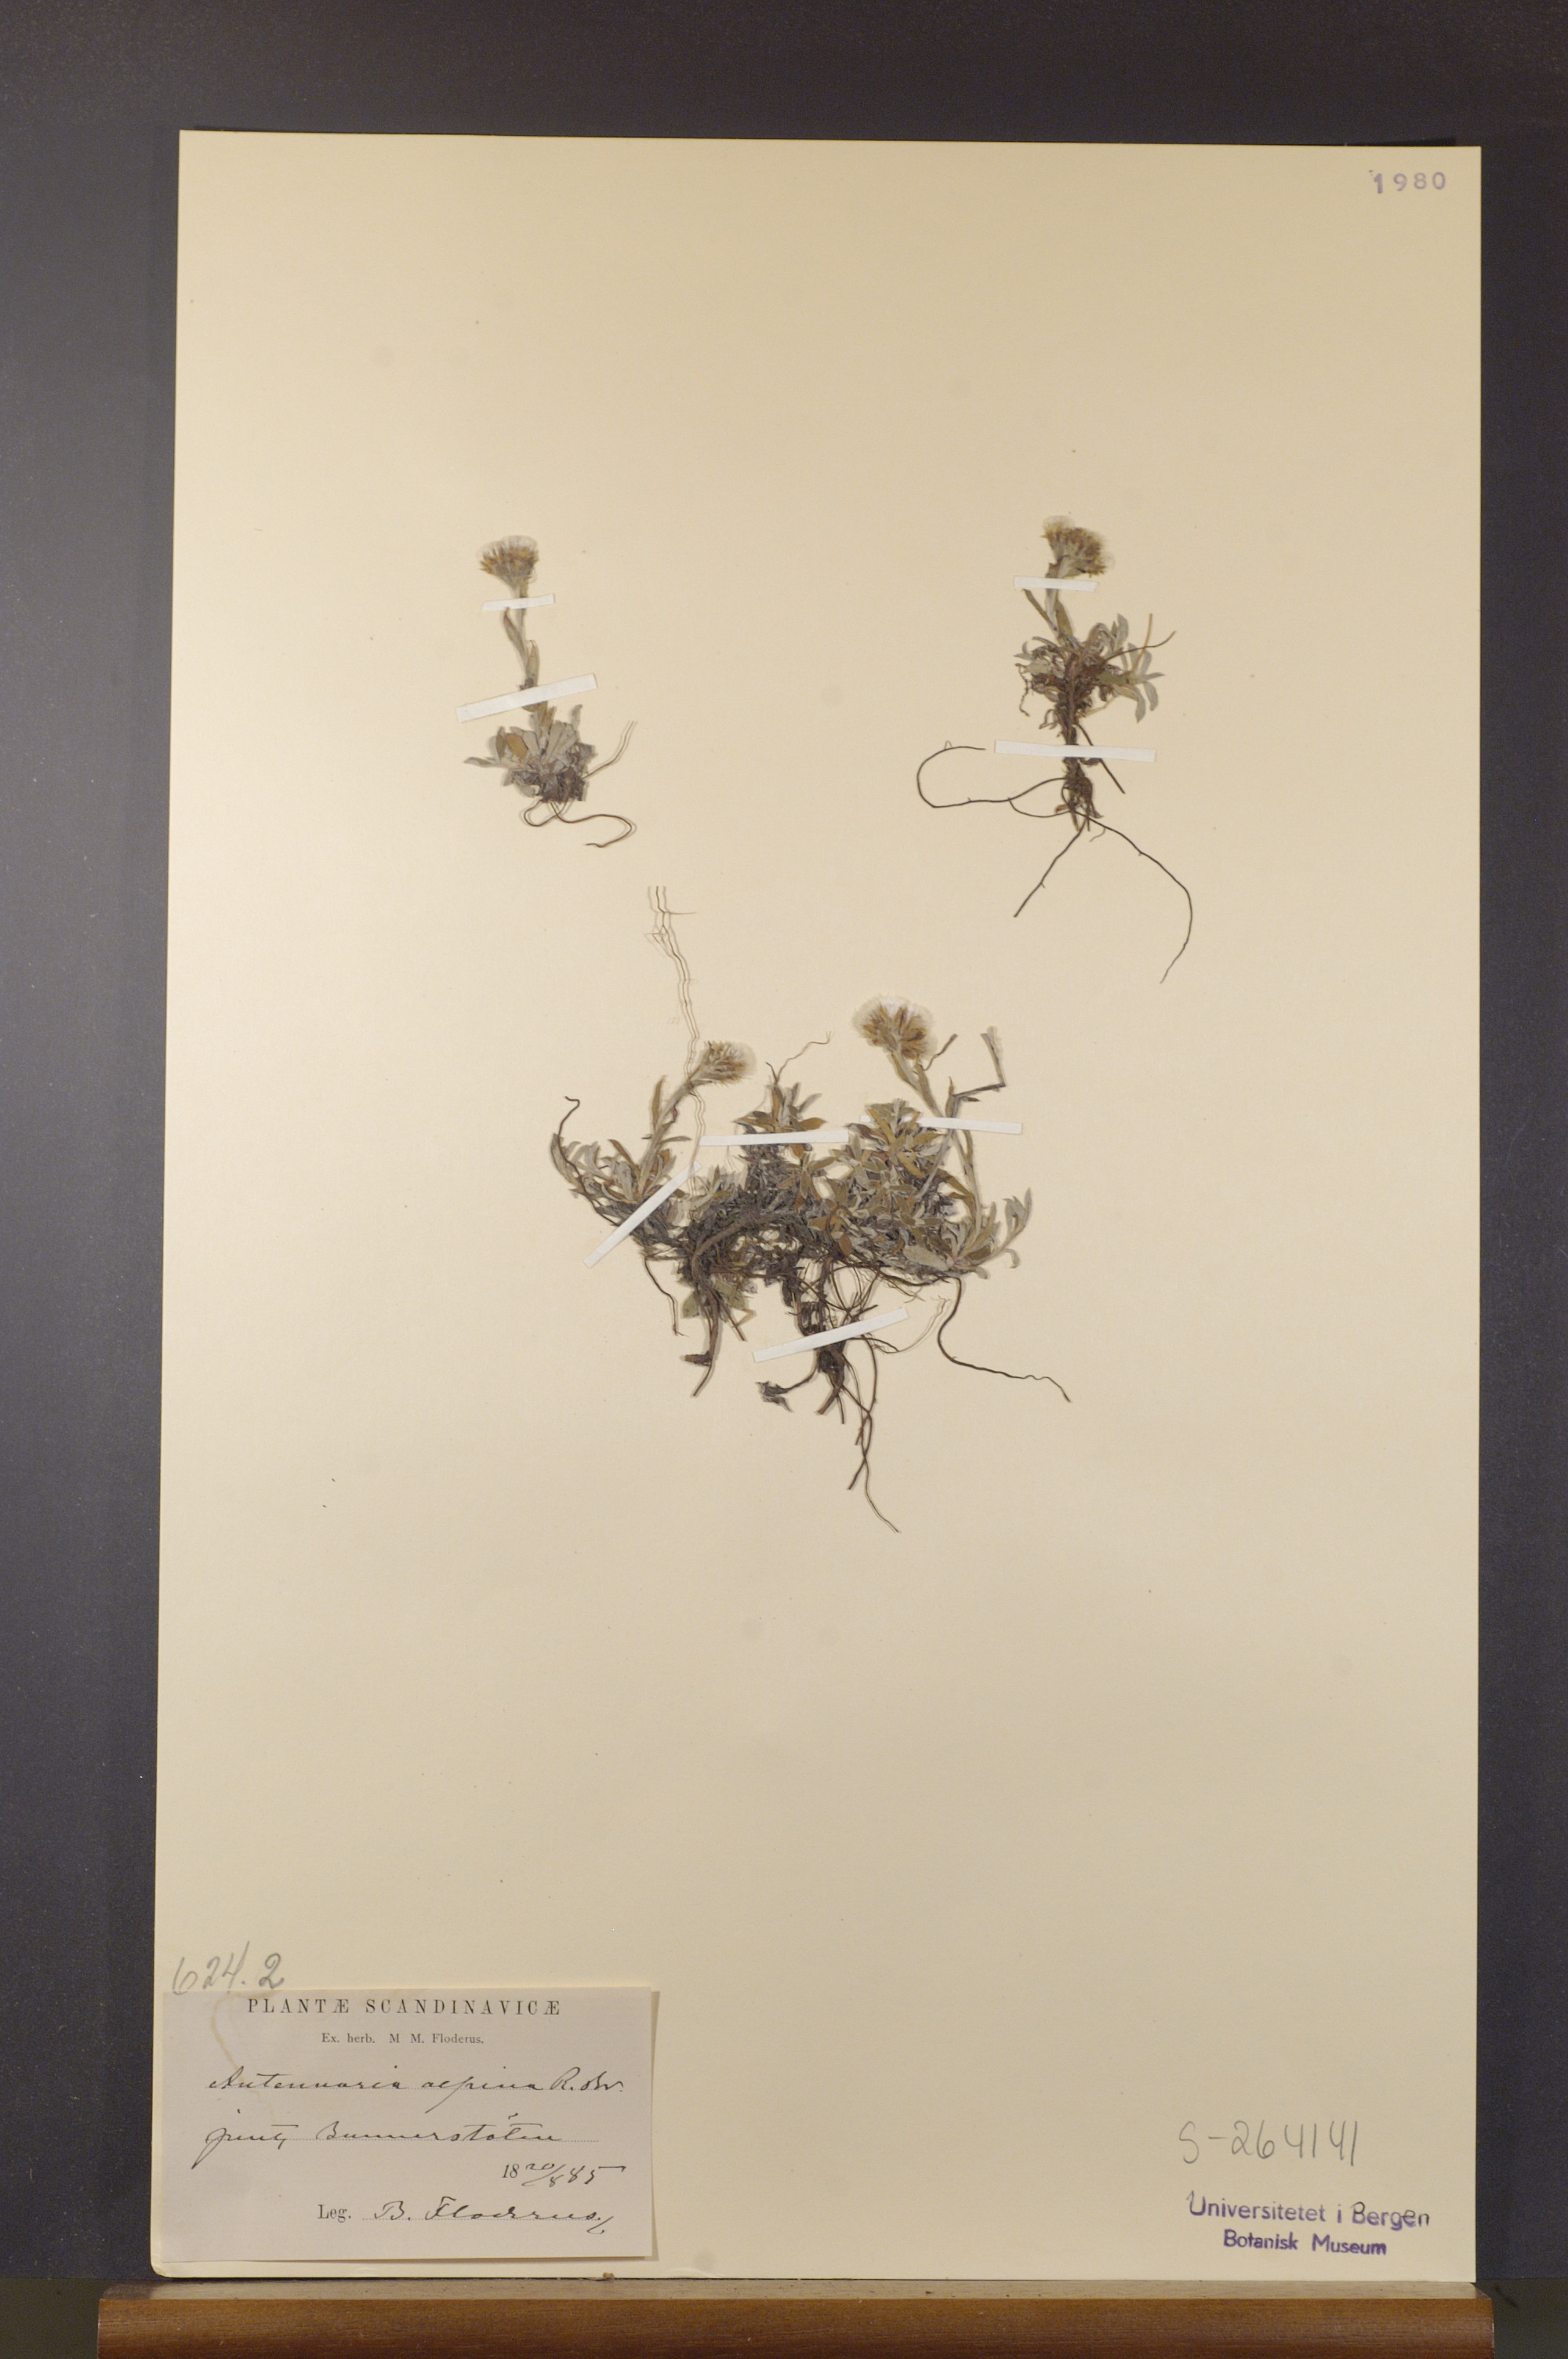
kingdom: Plantae
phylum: Tracheophyta
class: Magnoliopsida
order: Asterales
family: Asteraceae
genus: Antennaria
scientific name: Antennaria alpina
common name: Alpine pussytoes
